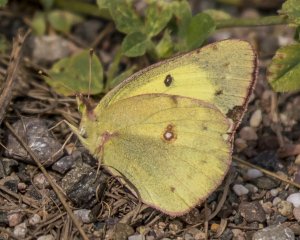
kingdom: Animalia
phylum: Arthropoda
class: Insecta
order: Lepidoptera
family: Pieridae
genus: Colias
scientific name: Colias eurytheme
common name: Orange Sulphur
